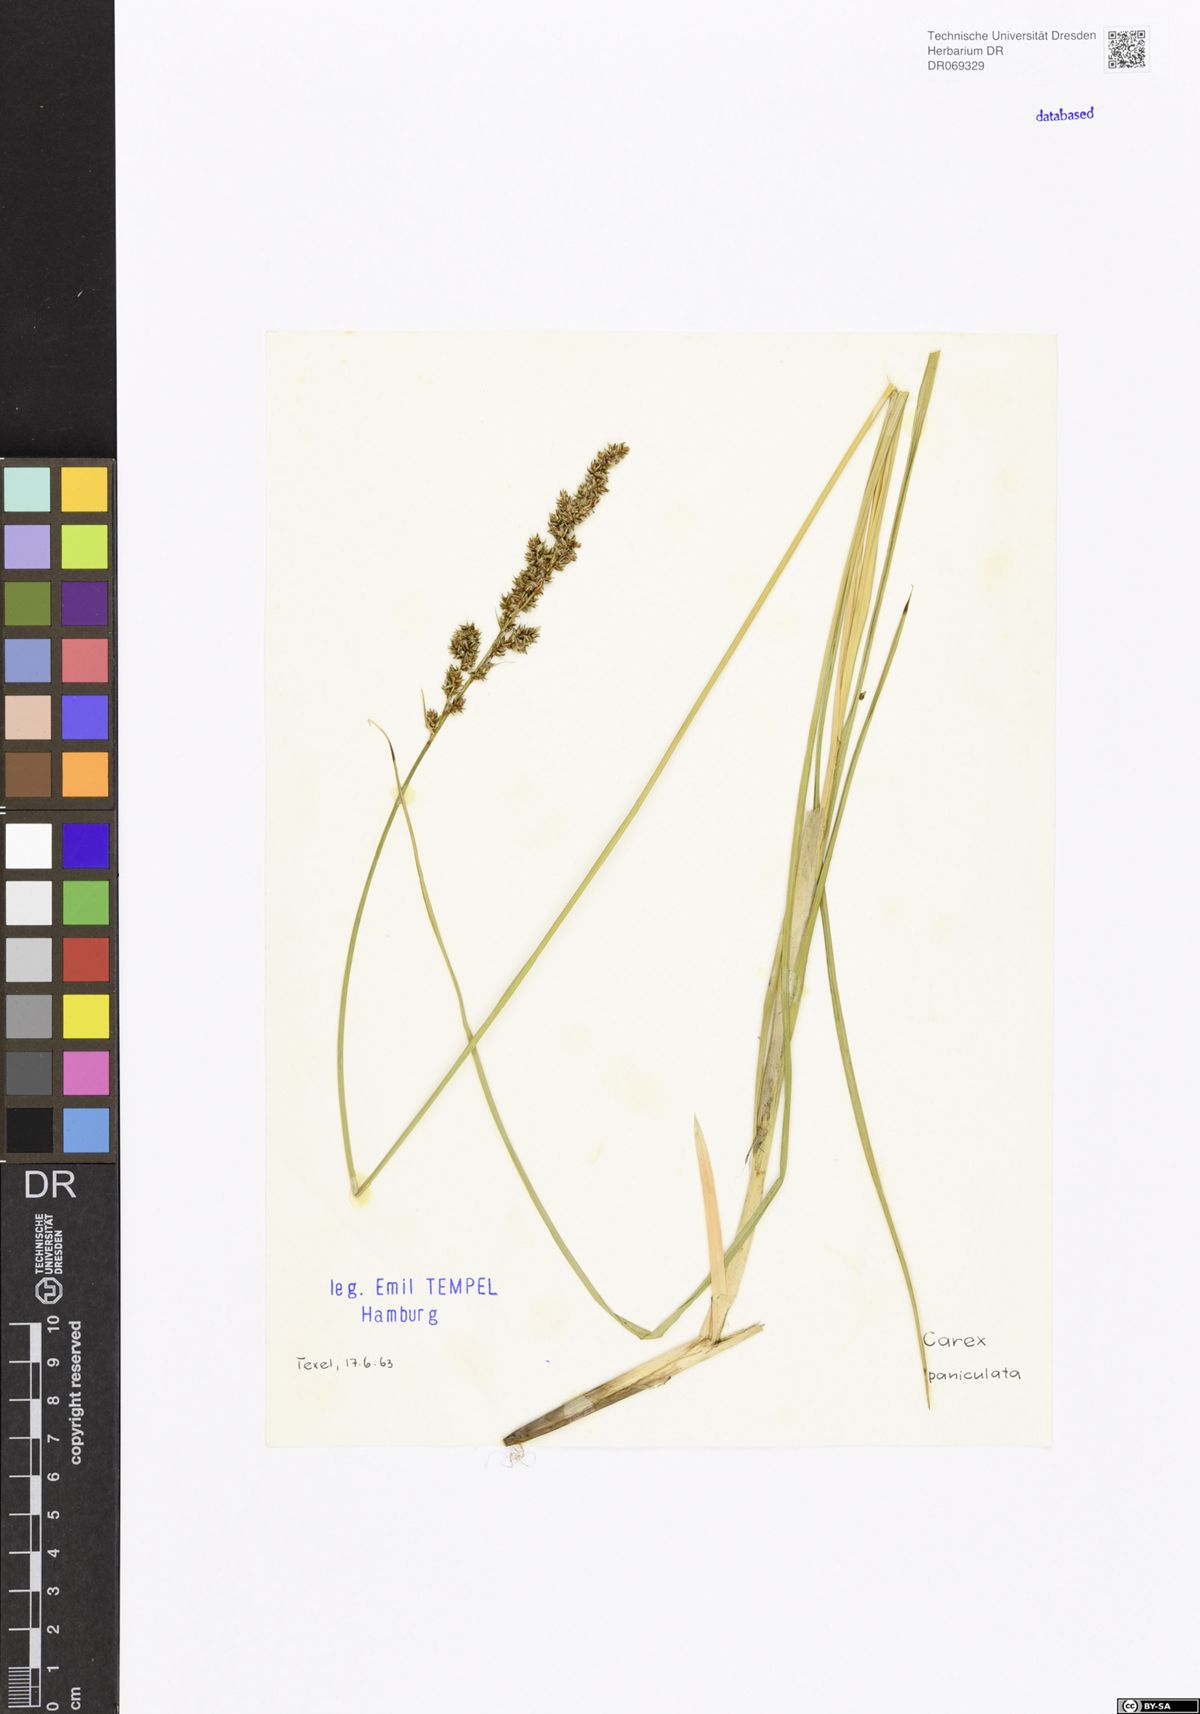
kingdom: Plantae
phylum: Tracheophyta
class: Liliopsida
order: Poales
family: Cyperaceae
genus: Carex
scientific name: Carex paniculata
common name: Greater tussock-sedge
